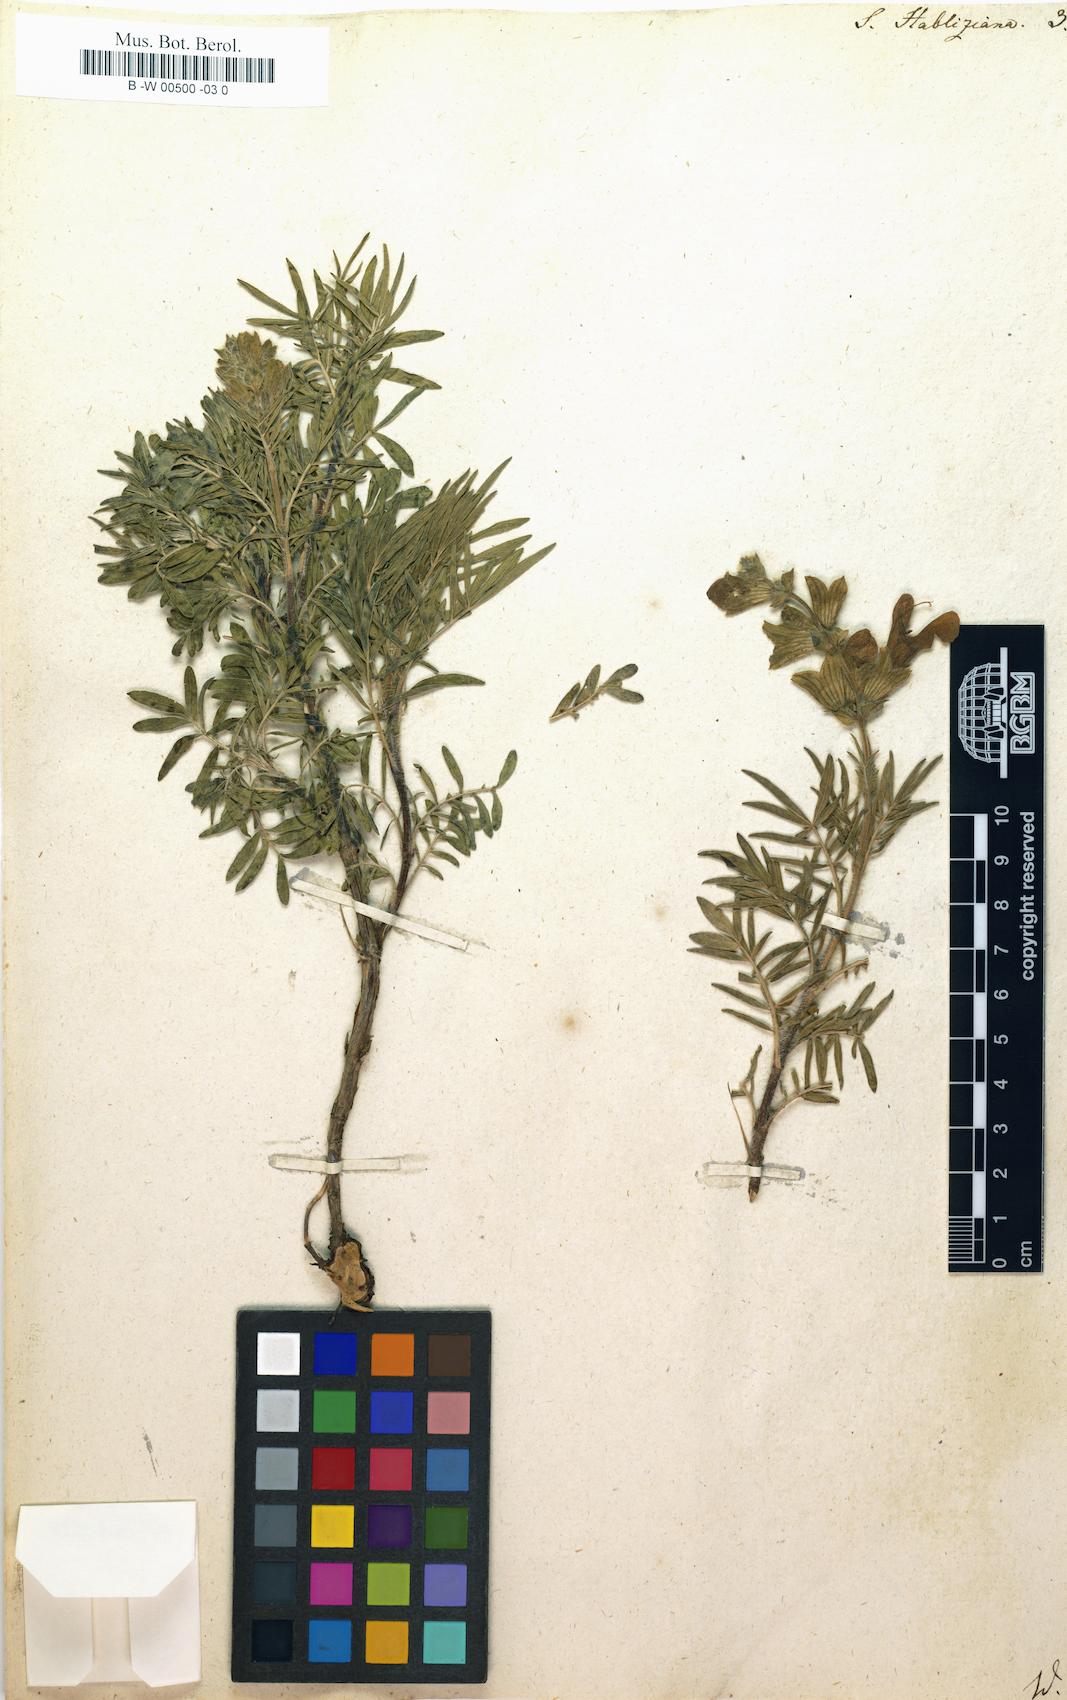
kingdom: Plantae
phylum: Tracheophyta
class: Magnoliopsida
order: Lamiales
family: Lamiaceae
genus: Salvia
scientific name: Salvia scabiosifolia
